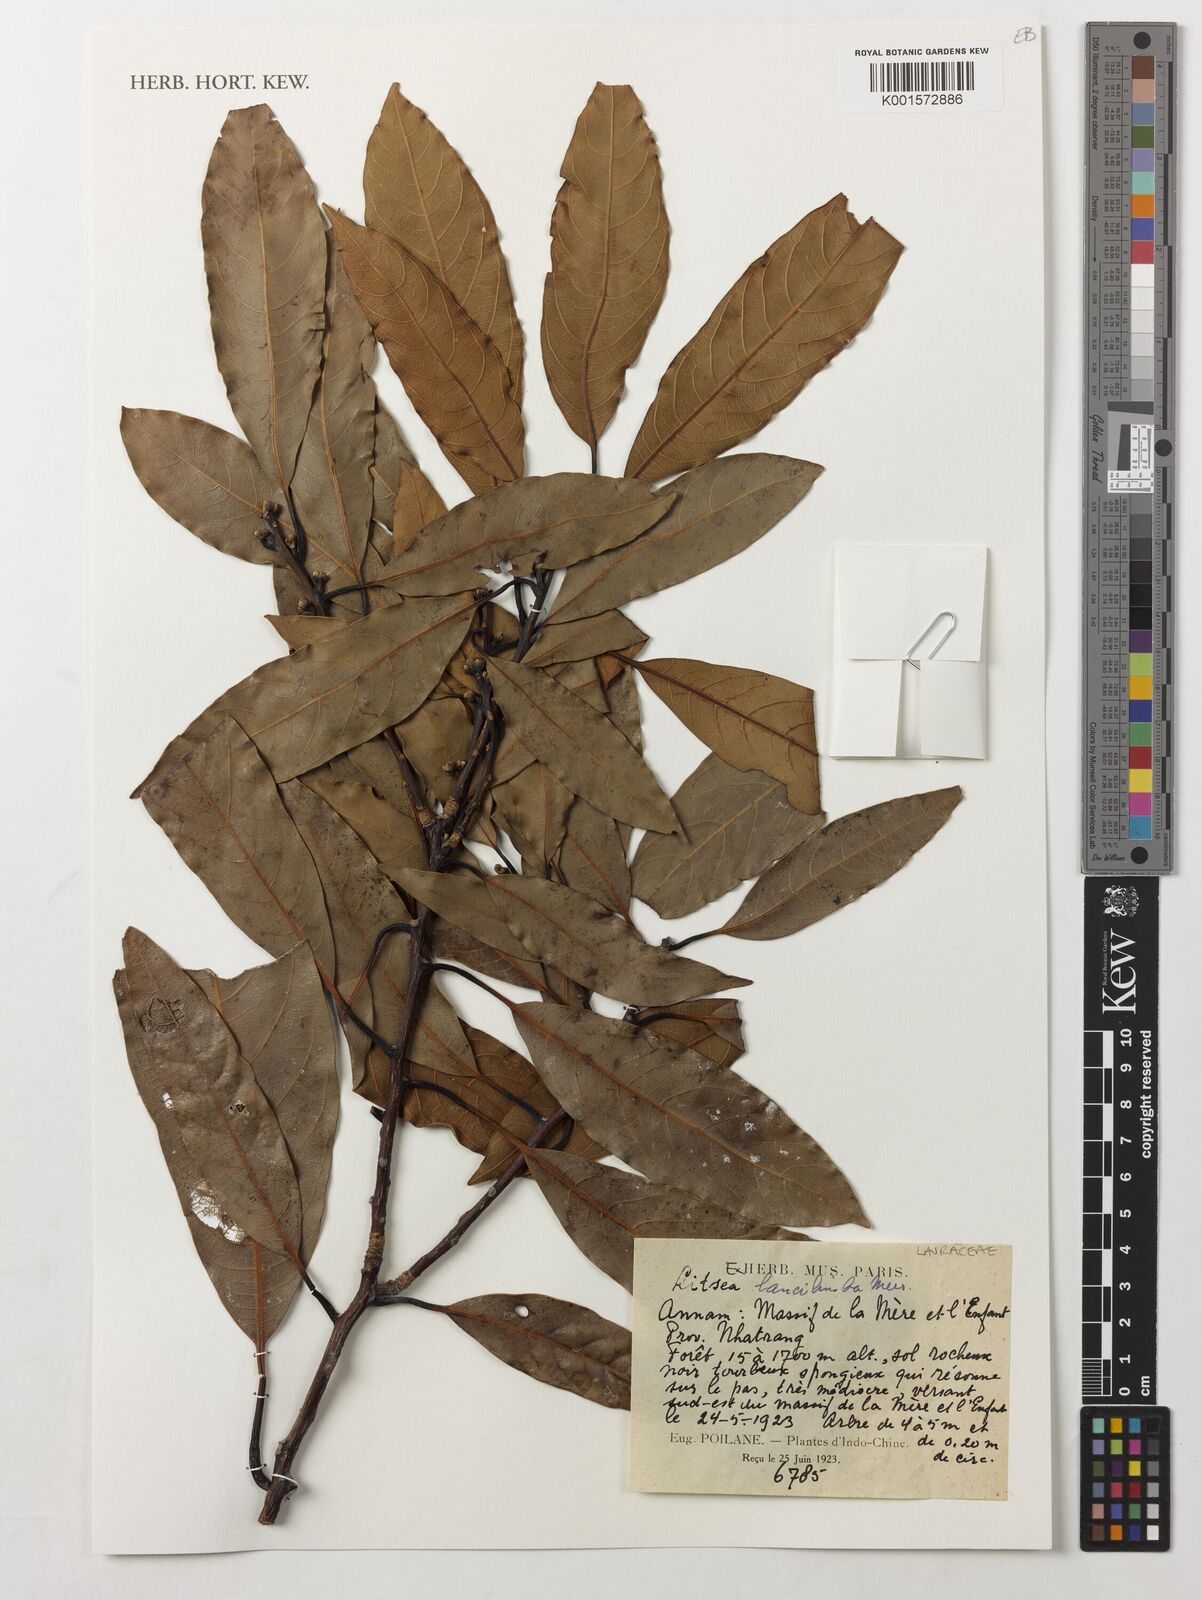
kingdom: Plantae
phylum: Tracheophyta
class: Magnoliopsida
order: Laurales
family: Lauraceae
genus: Litsea
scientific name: Litsea lancilimba
